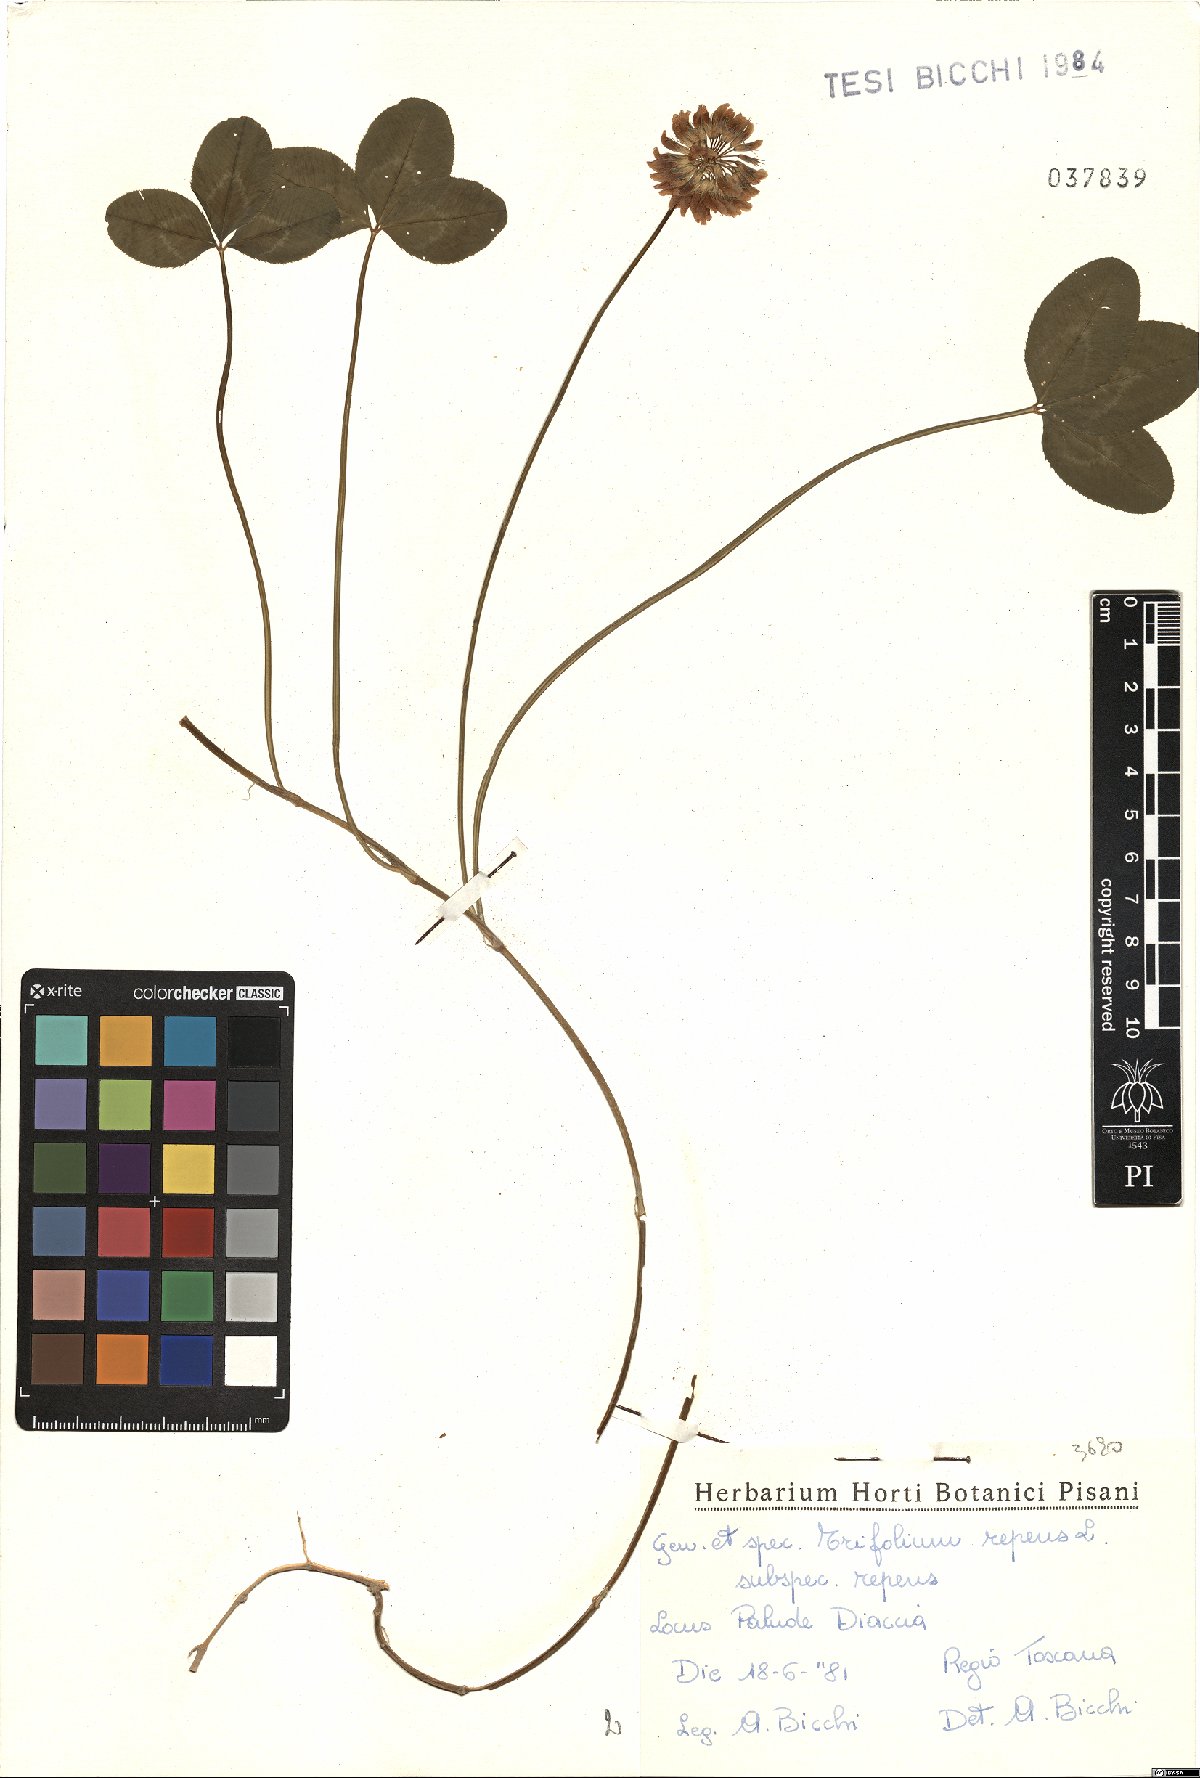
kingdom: Plantae
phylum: Tracheophyta
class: Magnoliopsida
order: Fabales
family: Fabaceae
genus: Trifolium
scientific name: Trifolium repens
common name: White clover
